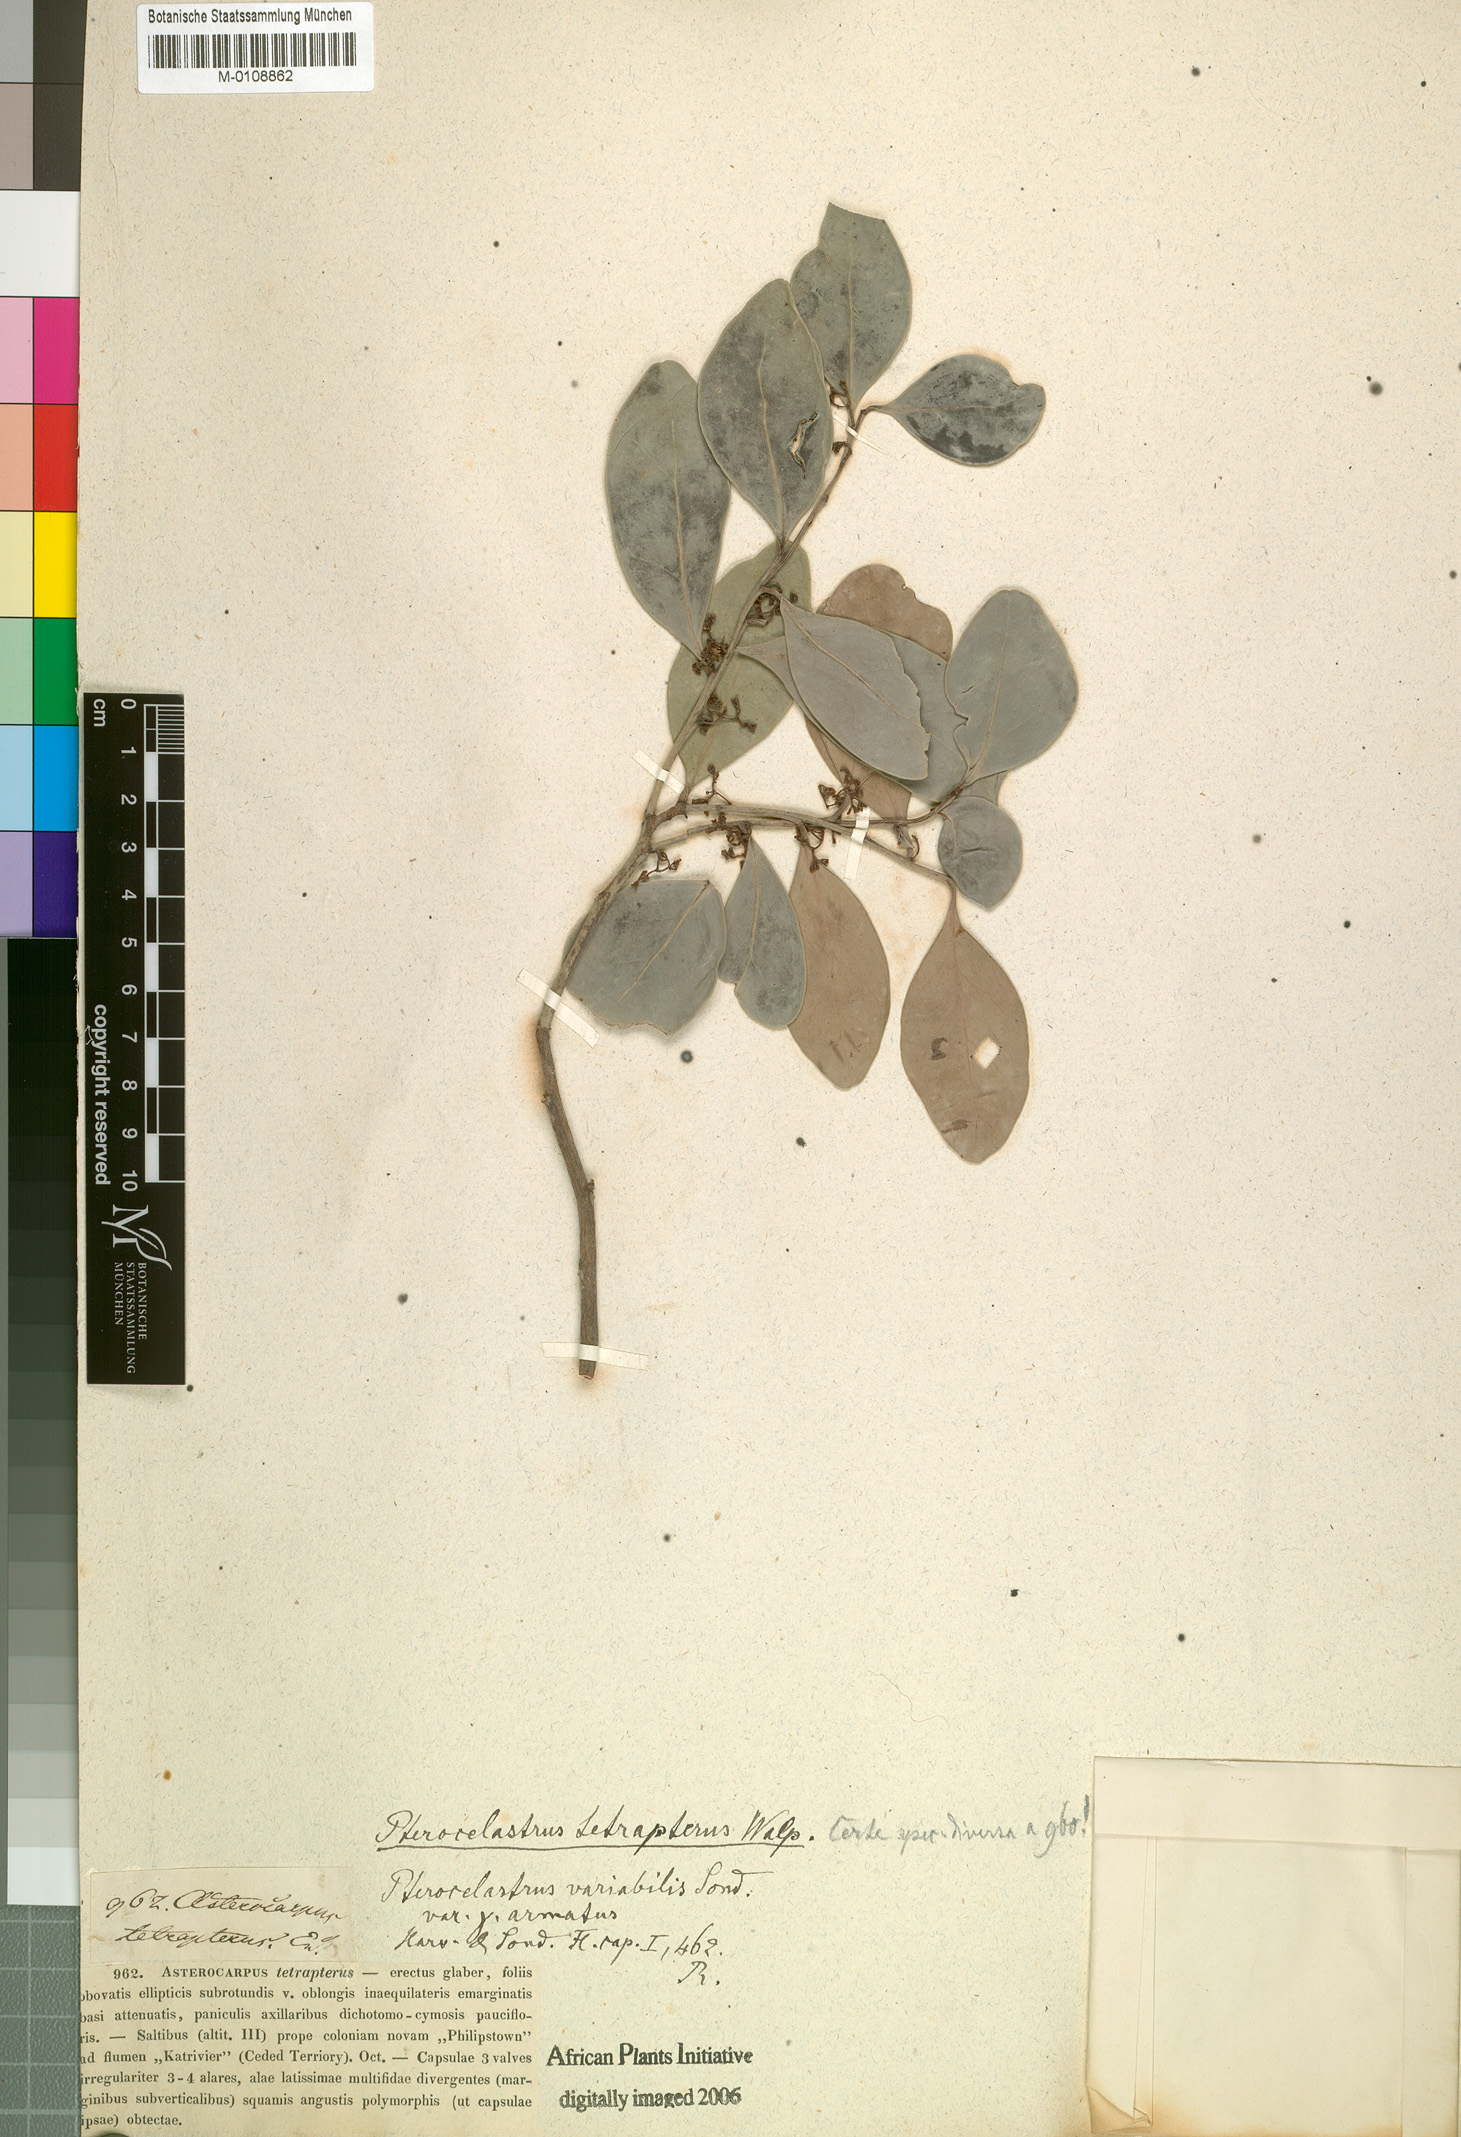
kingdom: Plantae
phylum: Tracheophyta
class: Magnoliopsida
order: Celastrales
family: Celastraceae
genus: Pterocelastrus
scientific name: Pterocelastrus tricuspidatus
